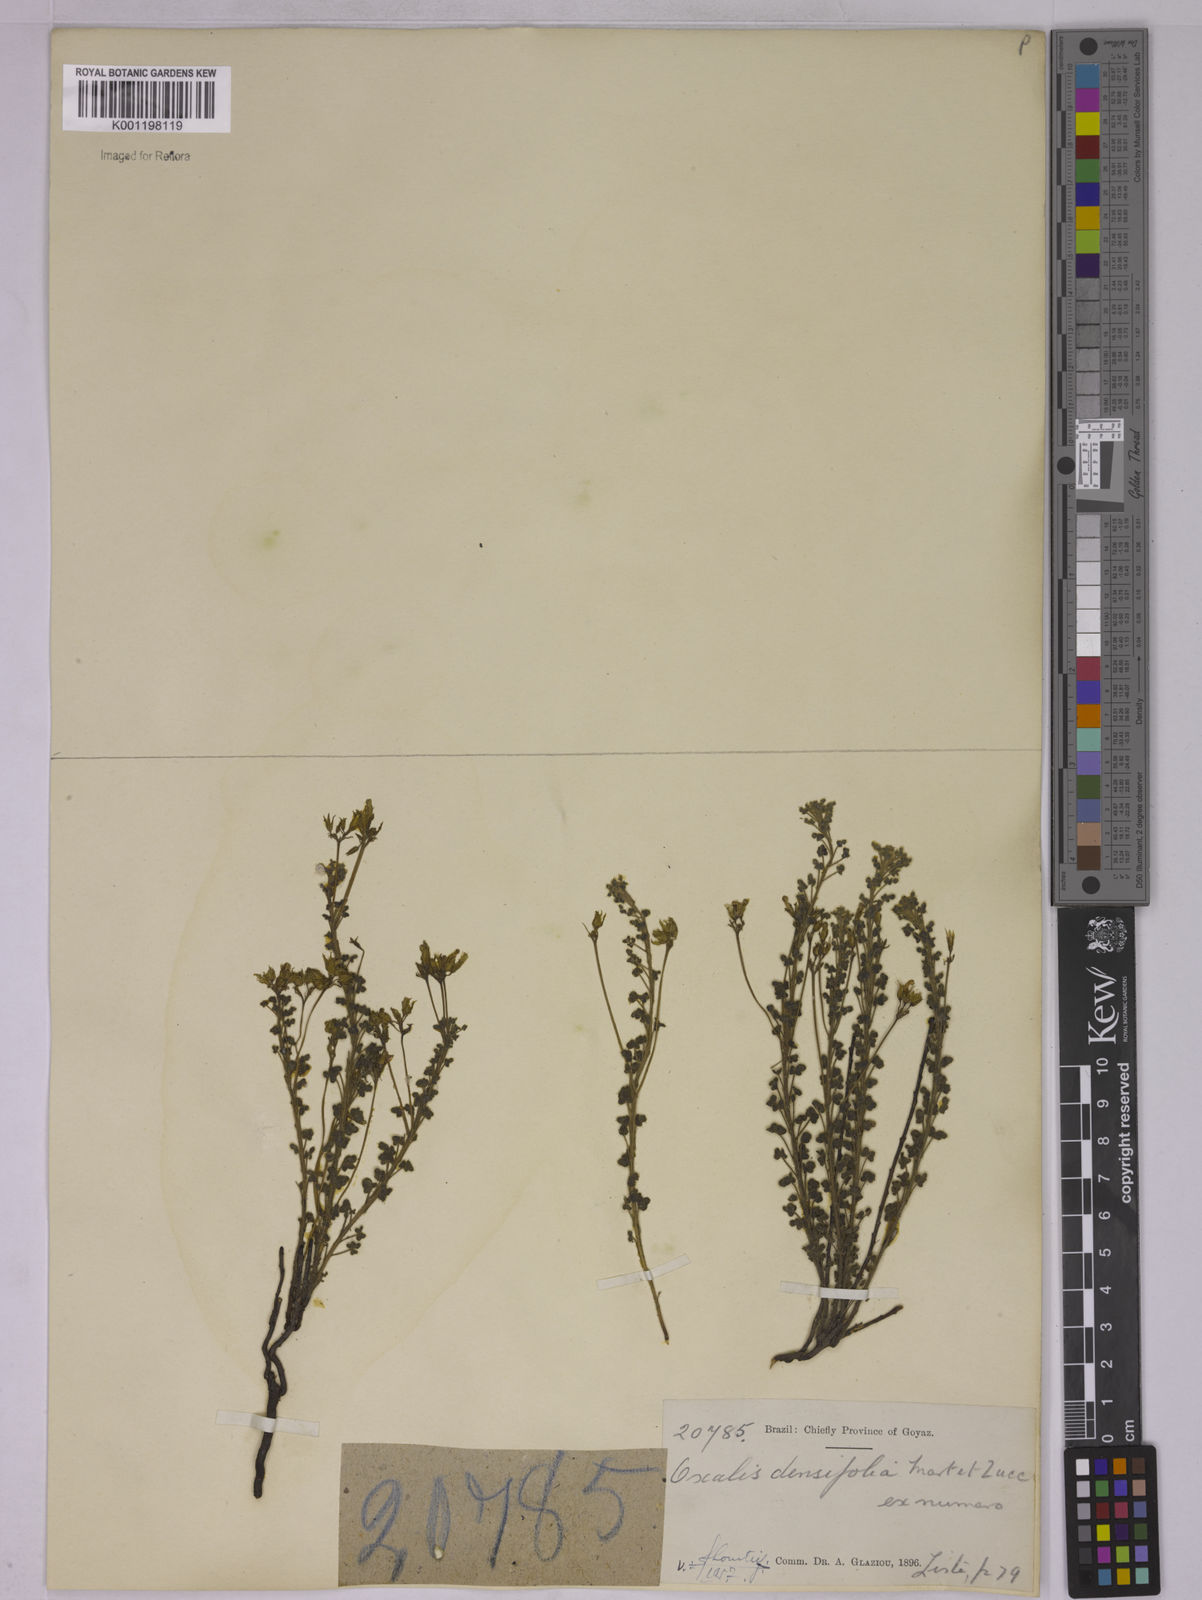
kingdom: Plantae
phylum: Tracheophyta
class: Magnoliopsida
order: Oxalidales
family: Oxalidaceae
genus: Oxalis
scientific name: Oxalis densifolia
